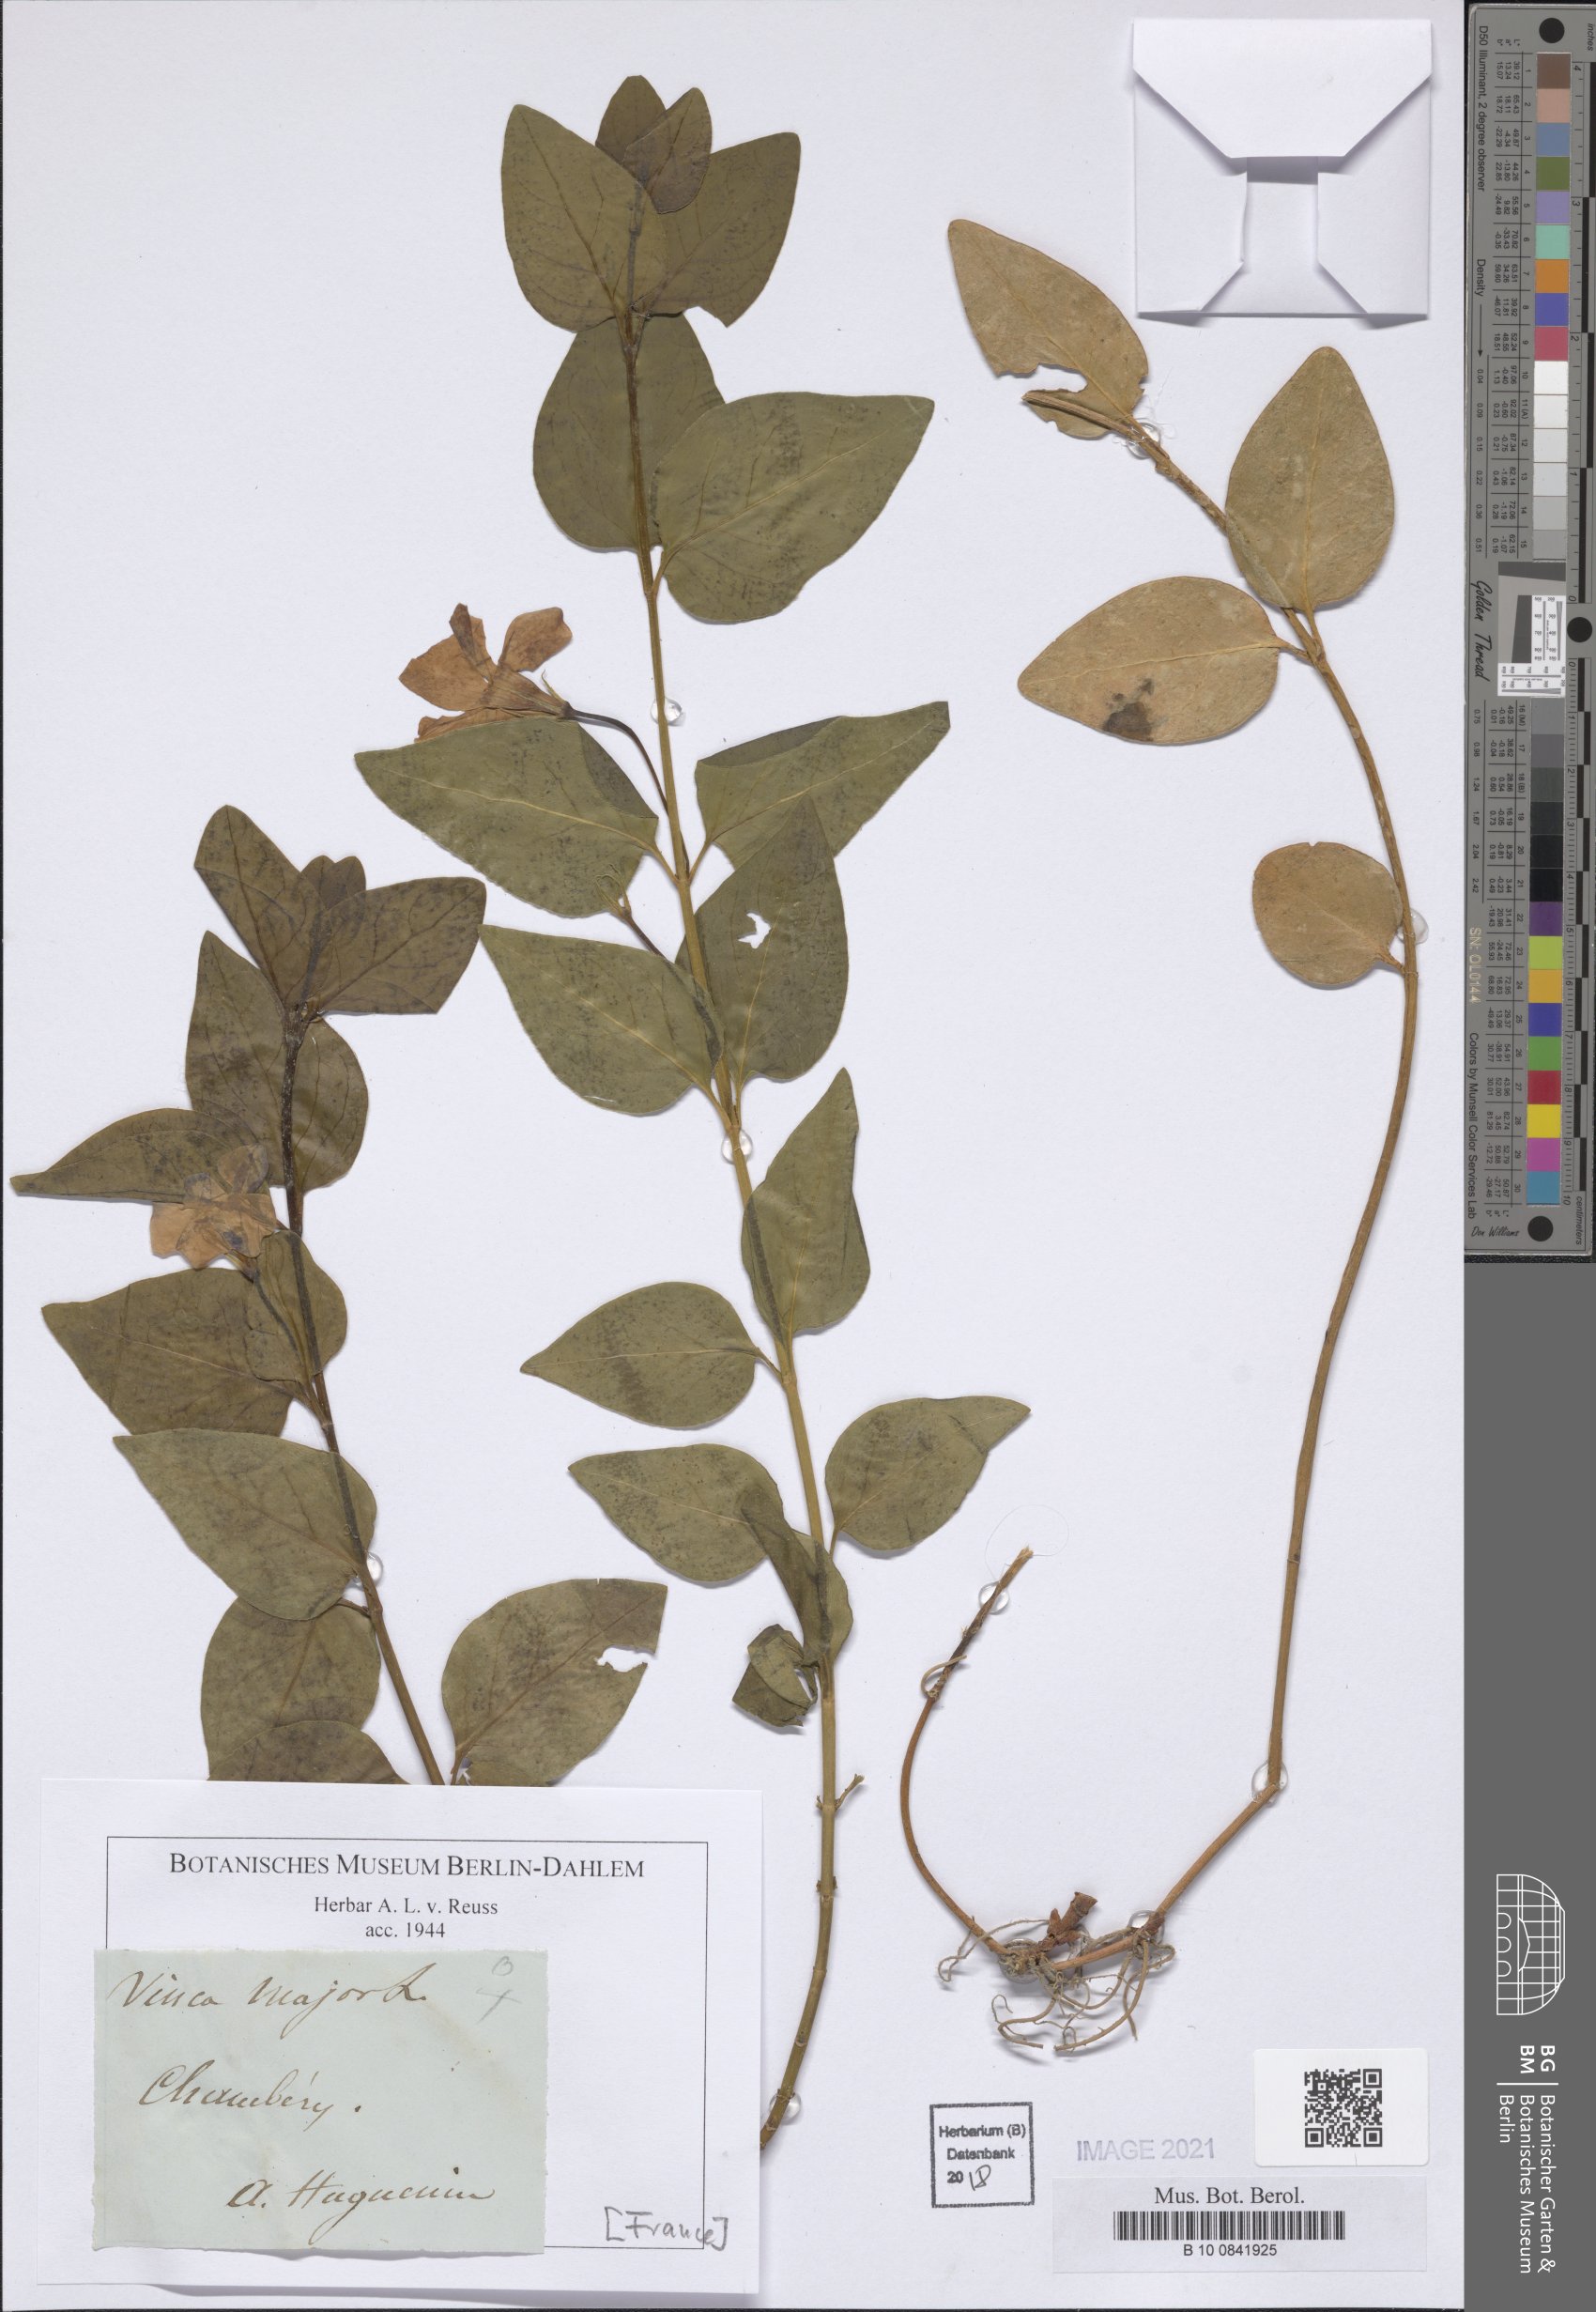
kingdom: Plantae
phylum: Tracheophyta
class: Magnoliopsida
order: Gentianales
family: Apocynaceae
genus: Vinca
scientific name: Vinca major
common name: Greater periwinkle
